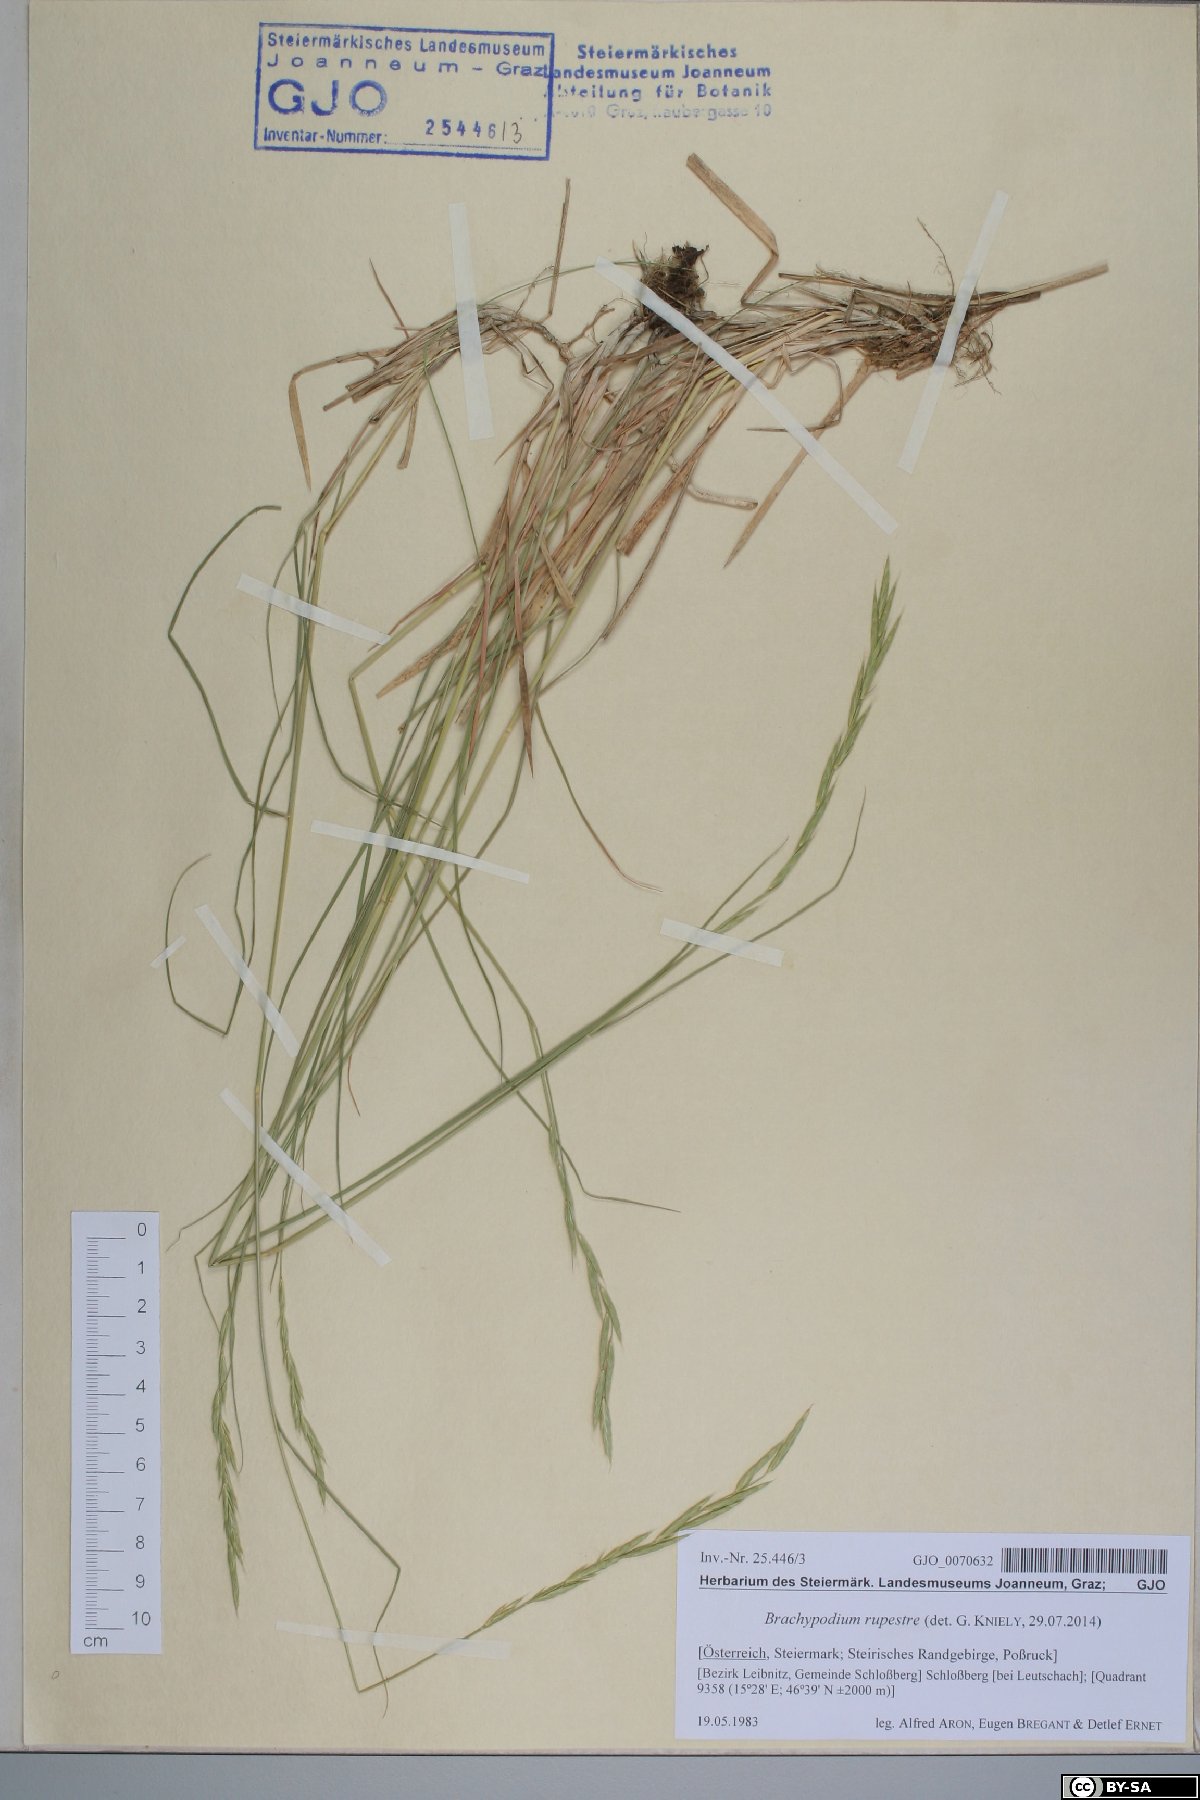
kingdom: Plantae
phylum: Tracheophyta
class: Liliopsida
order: Poales
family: Poaceae
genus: Brachypodium
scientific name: Brachypodium pinnatum
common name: Tor grass
